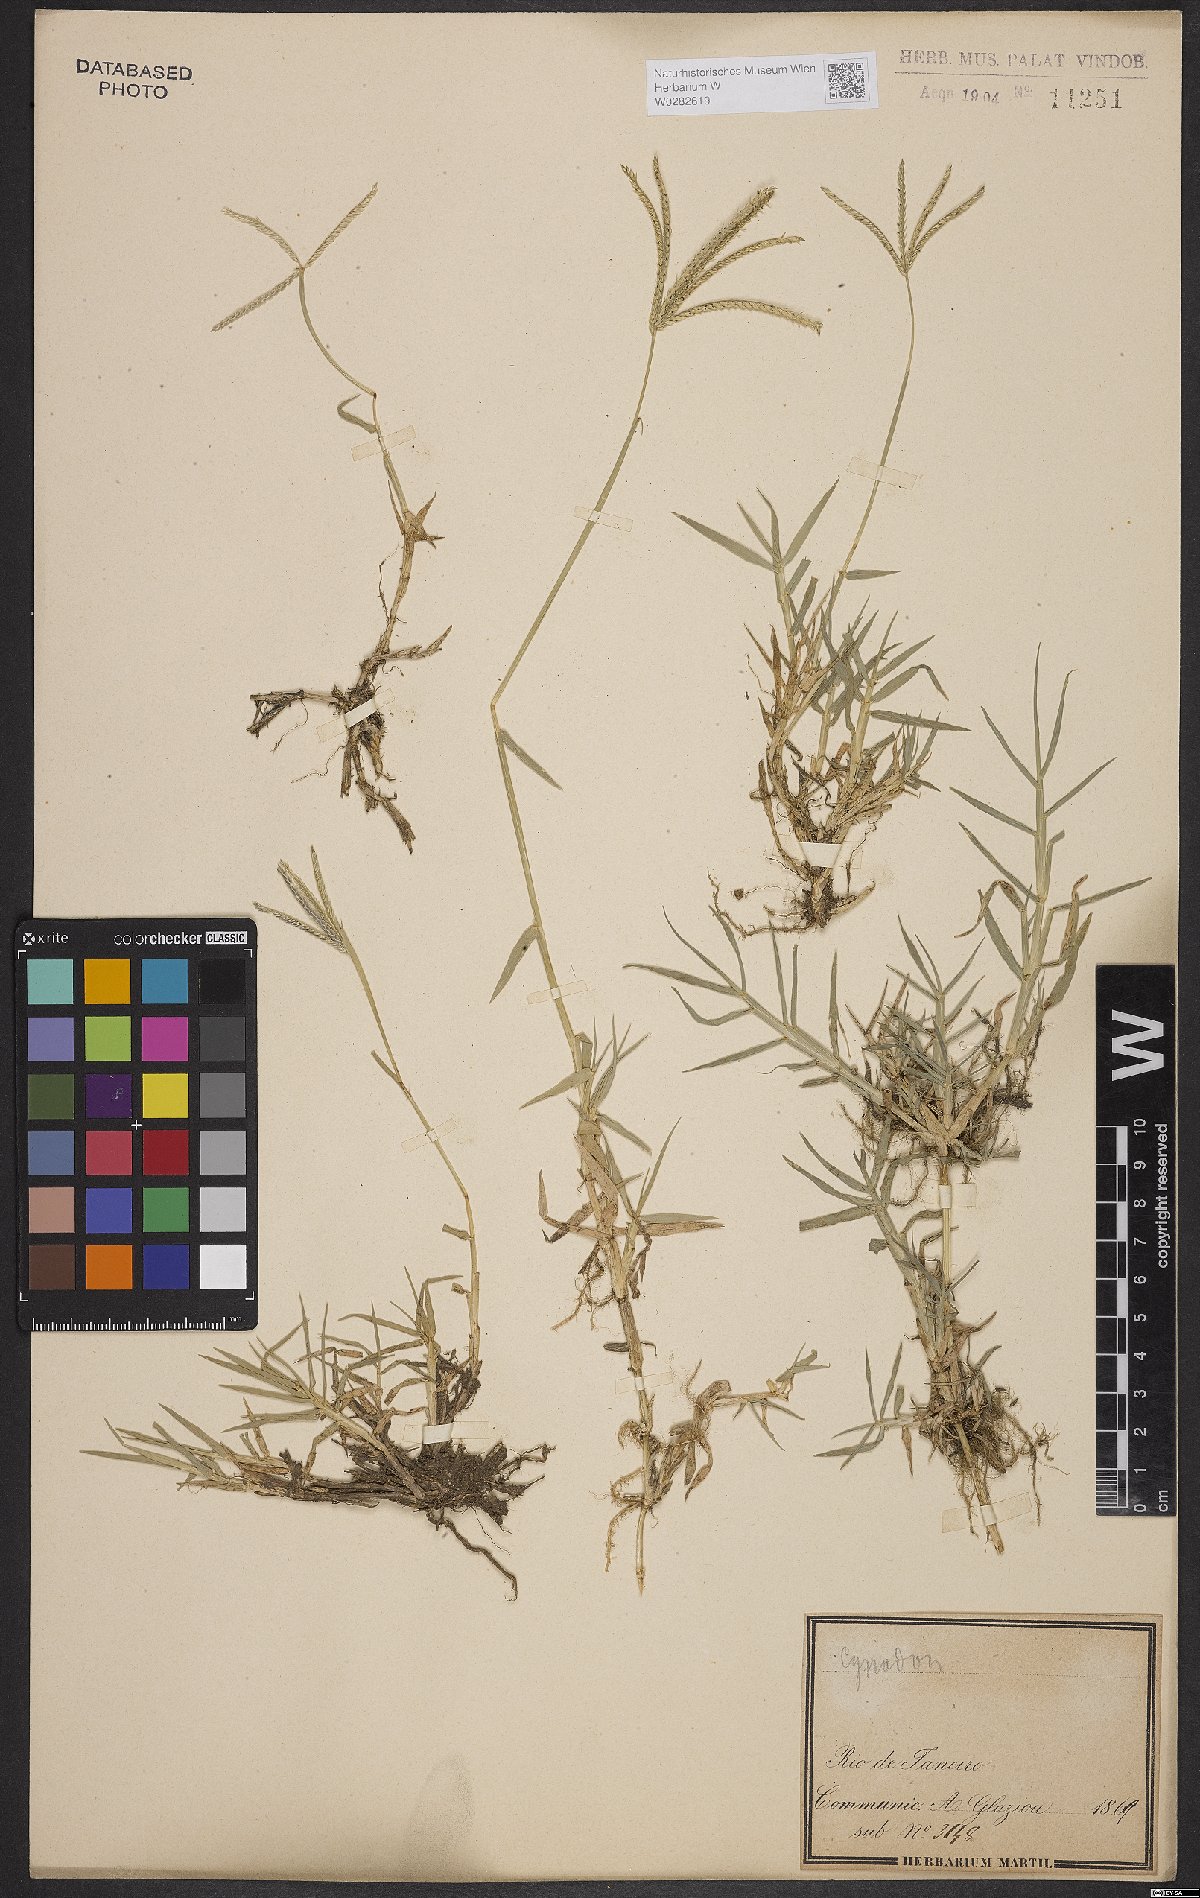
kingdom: Plantae
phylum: Tracheophyta
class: Liliopsida
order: Poales
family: Poaceae
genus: Cynodon
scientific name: Cynodon dactylon
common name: Bermuda grass
